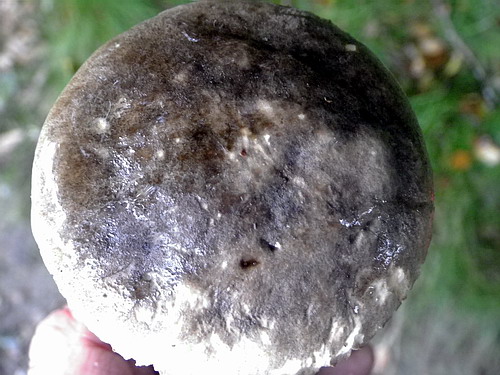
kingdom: Fungi
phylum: Basidiomycota
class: Agaricomycetes
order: Boletales
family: Boletaceae
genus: Leccinum
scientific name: Leccinum variicolor
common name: flammet skælrørhat
